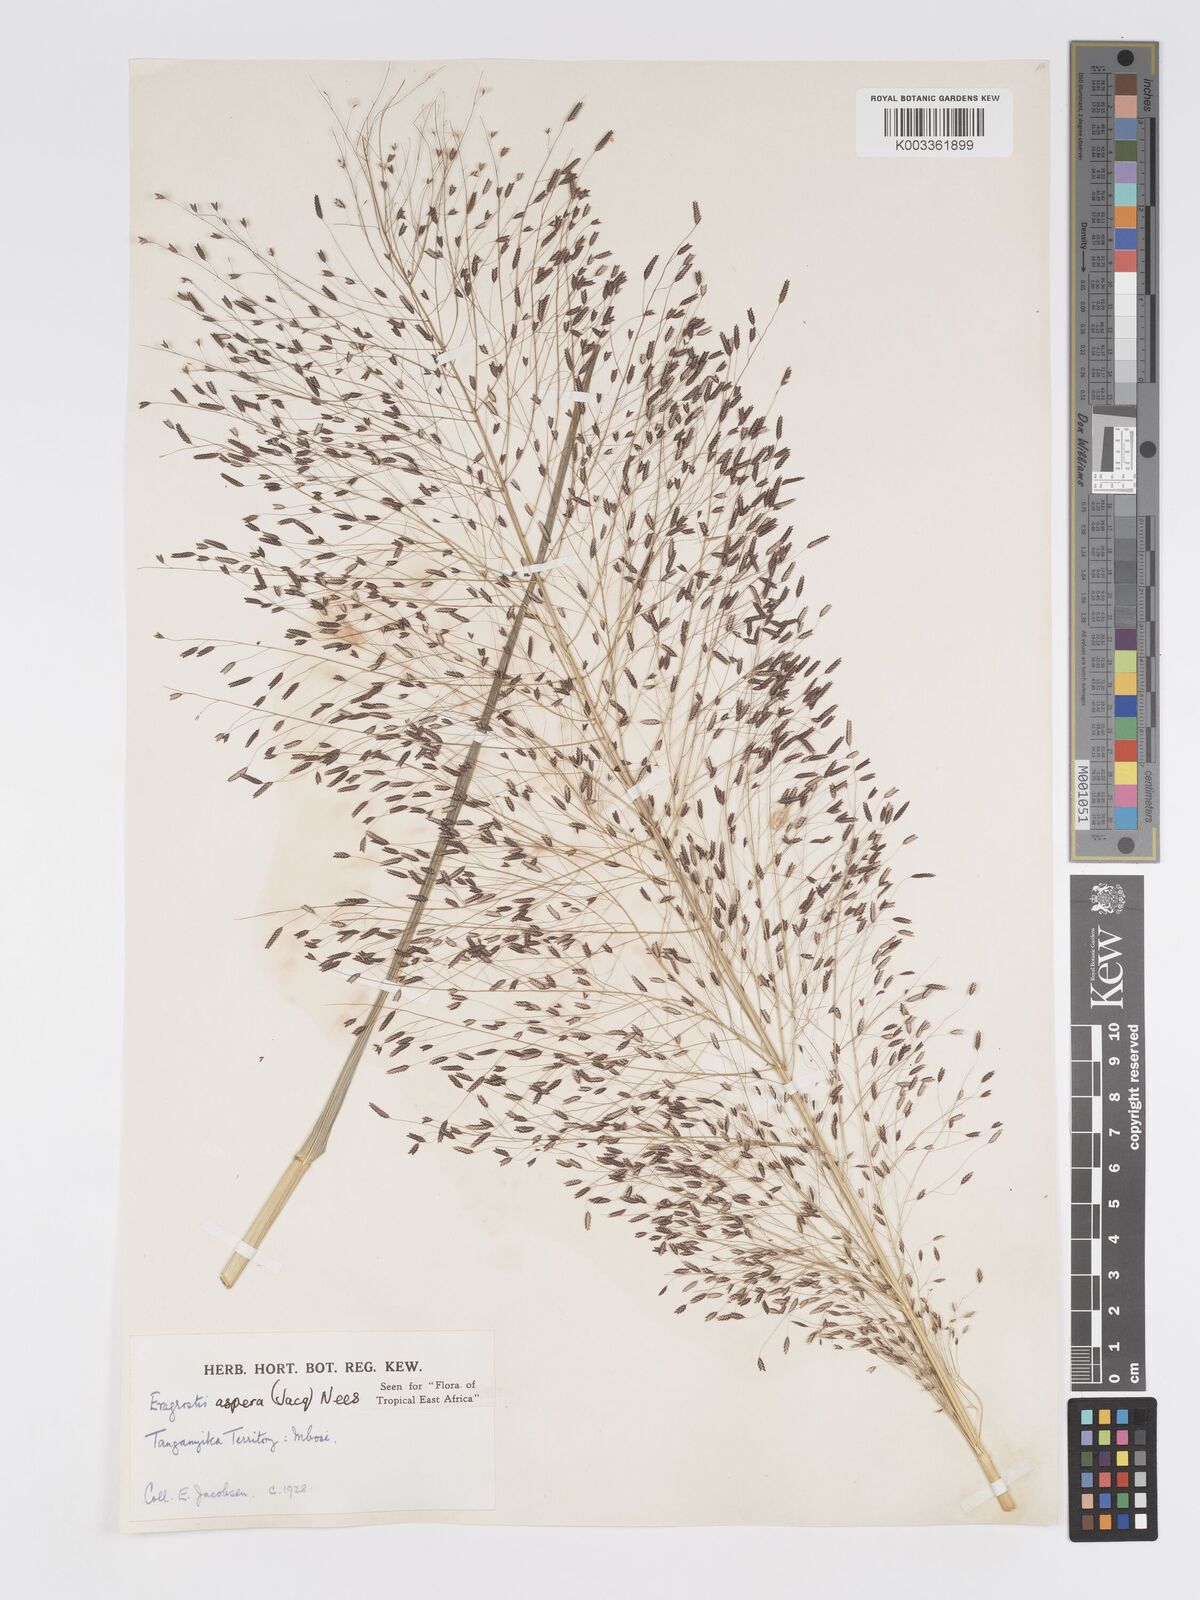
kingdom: Plantae
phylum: Tracheophyta
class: Liliopsida
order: Poales
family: Poaceae
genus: Eragrostis
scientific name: Eragrostis aspera
